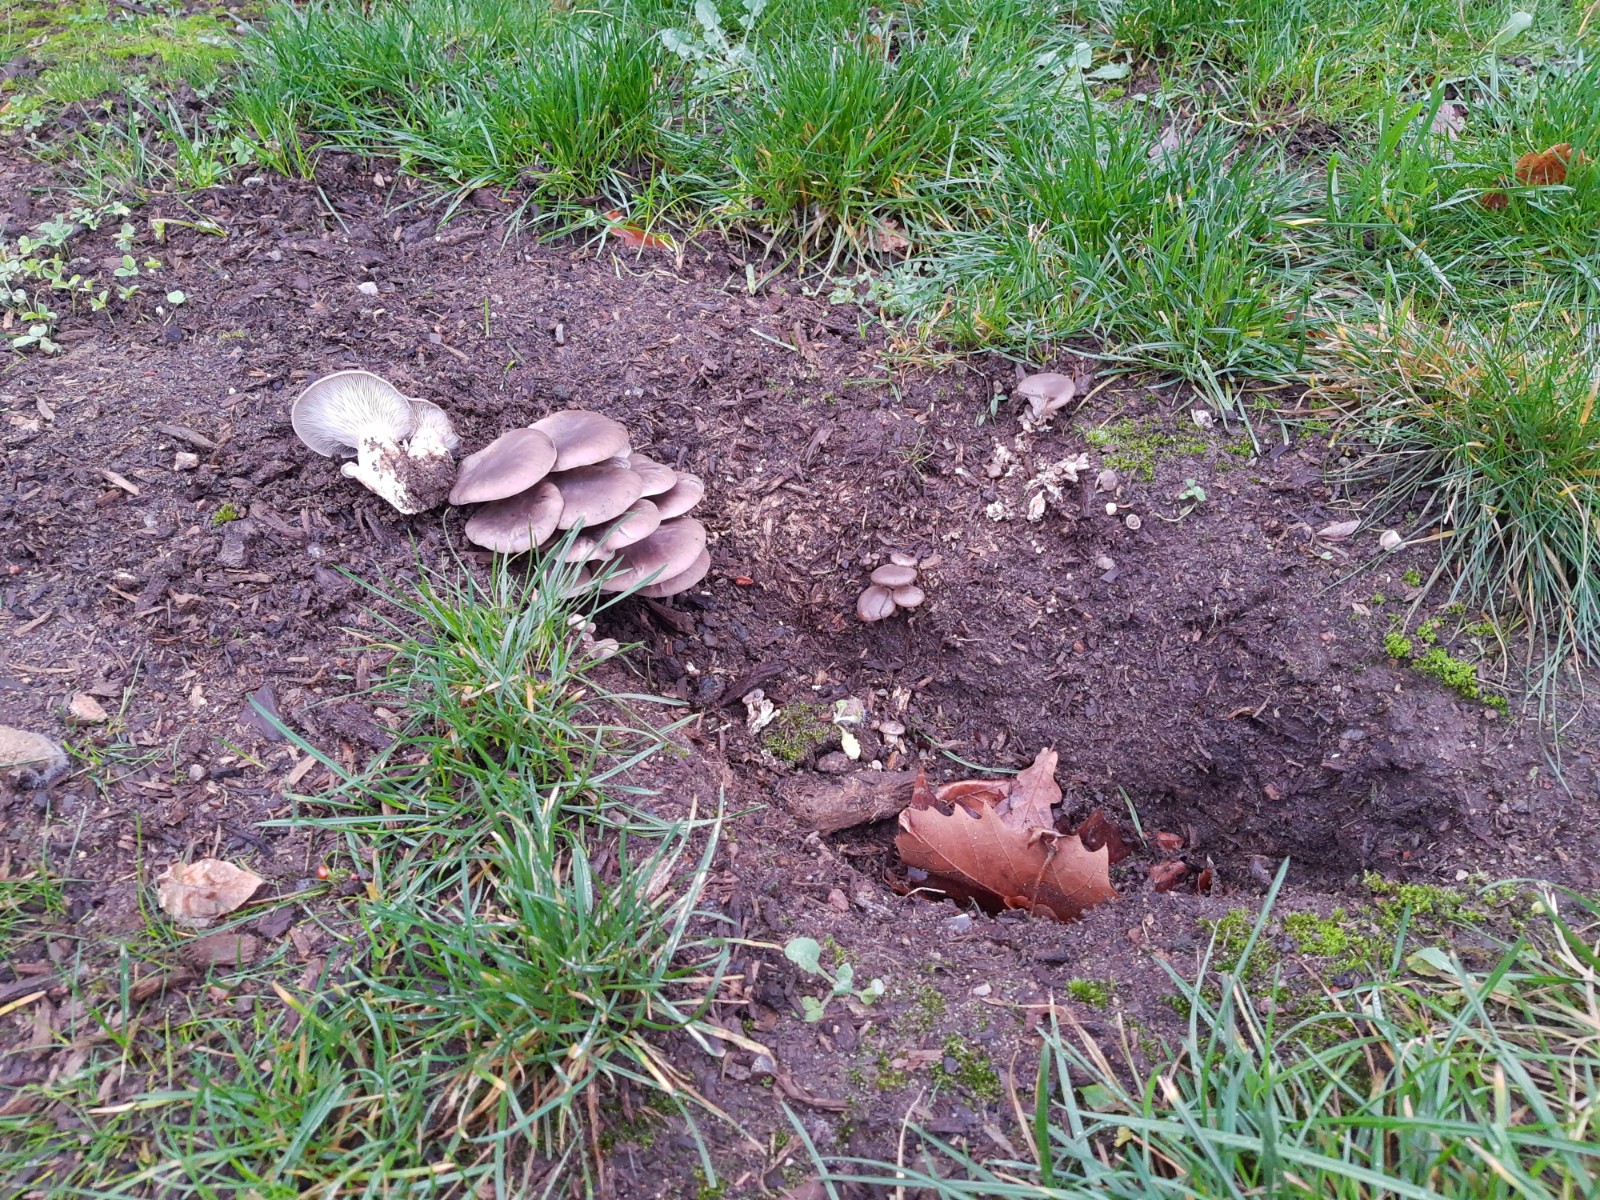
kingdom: Fungi
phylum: Basidiomycota
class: Agaricomycetes
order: Agaricales
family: Pleurotaceae
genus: Pleurotus
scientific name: Pleurotus ostreatus
